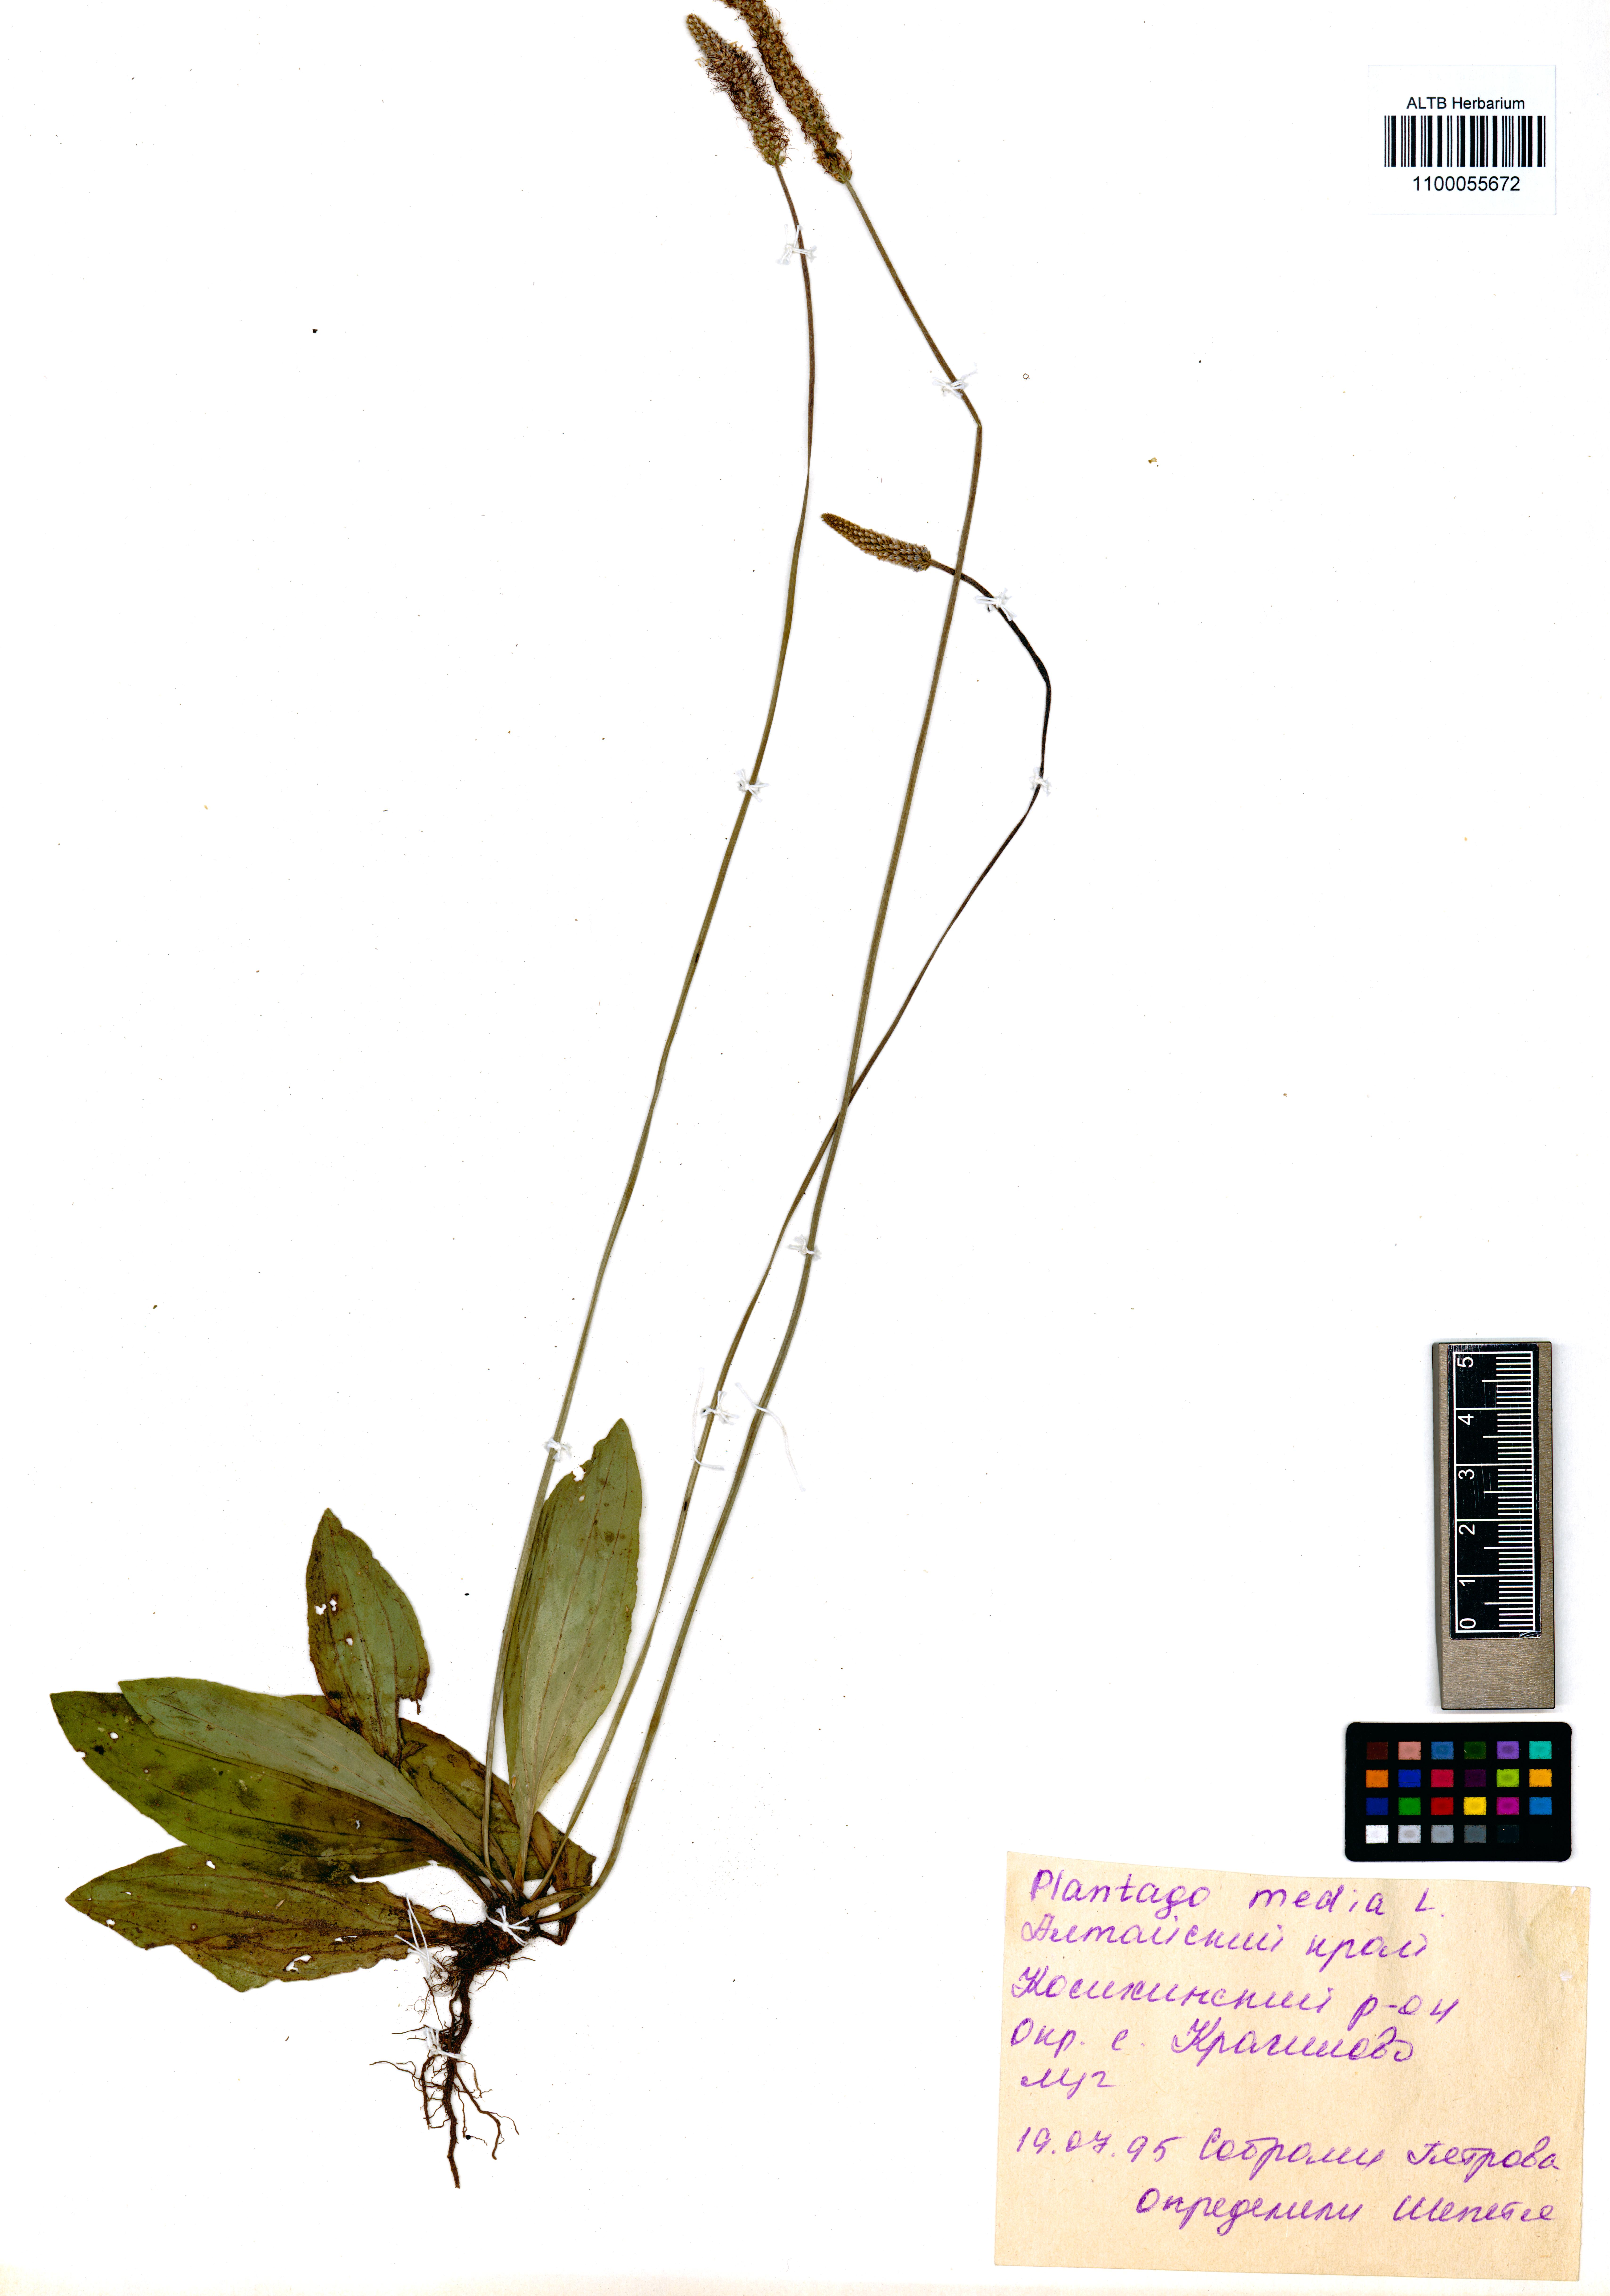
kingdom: Plantae
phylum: Tracheophyta
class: Magnoliopsida
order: Lamiales
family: Plantaginaceae
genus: Plantago
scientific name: Plantago media
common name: Hoary plantain
